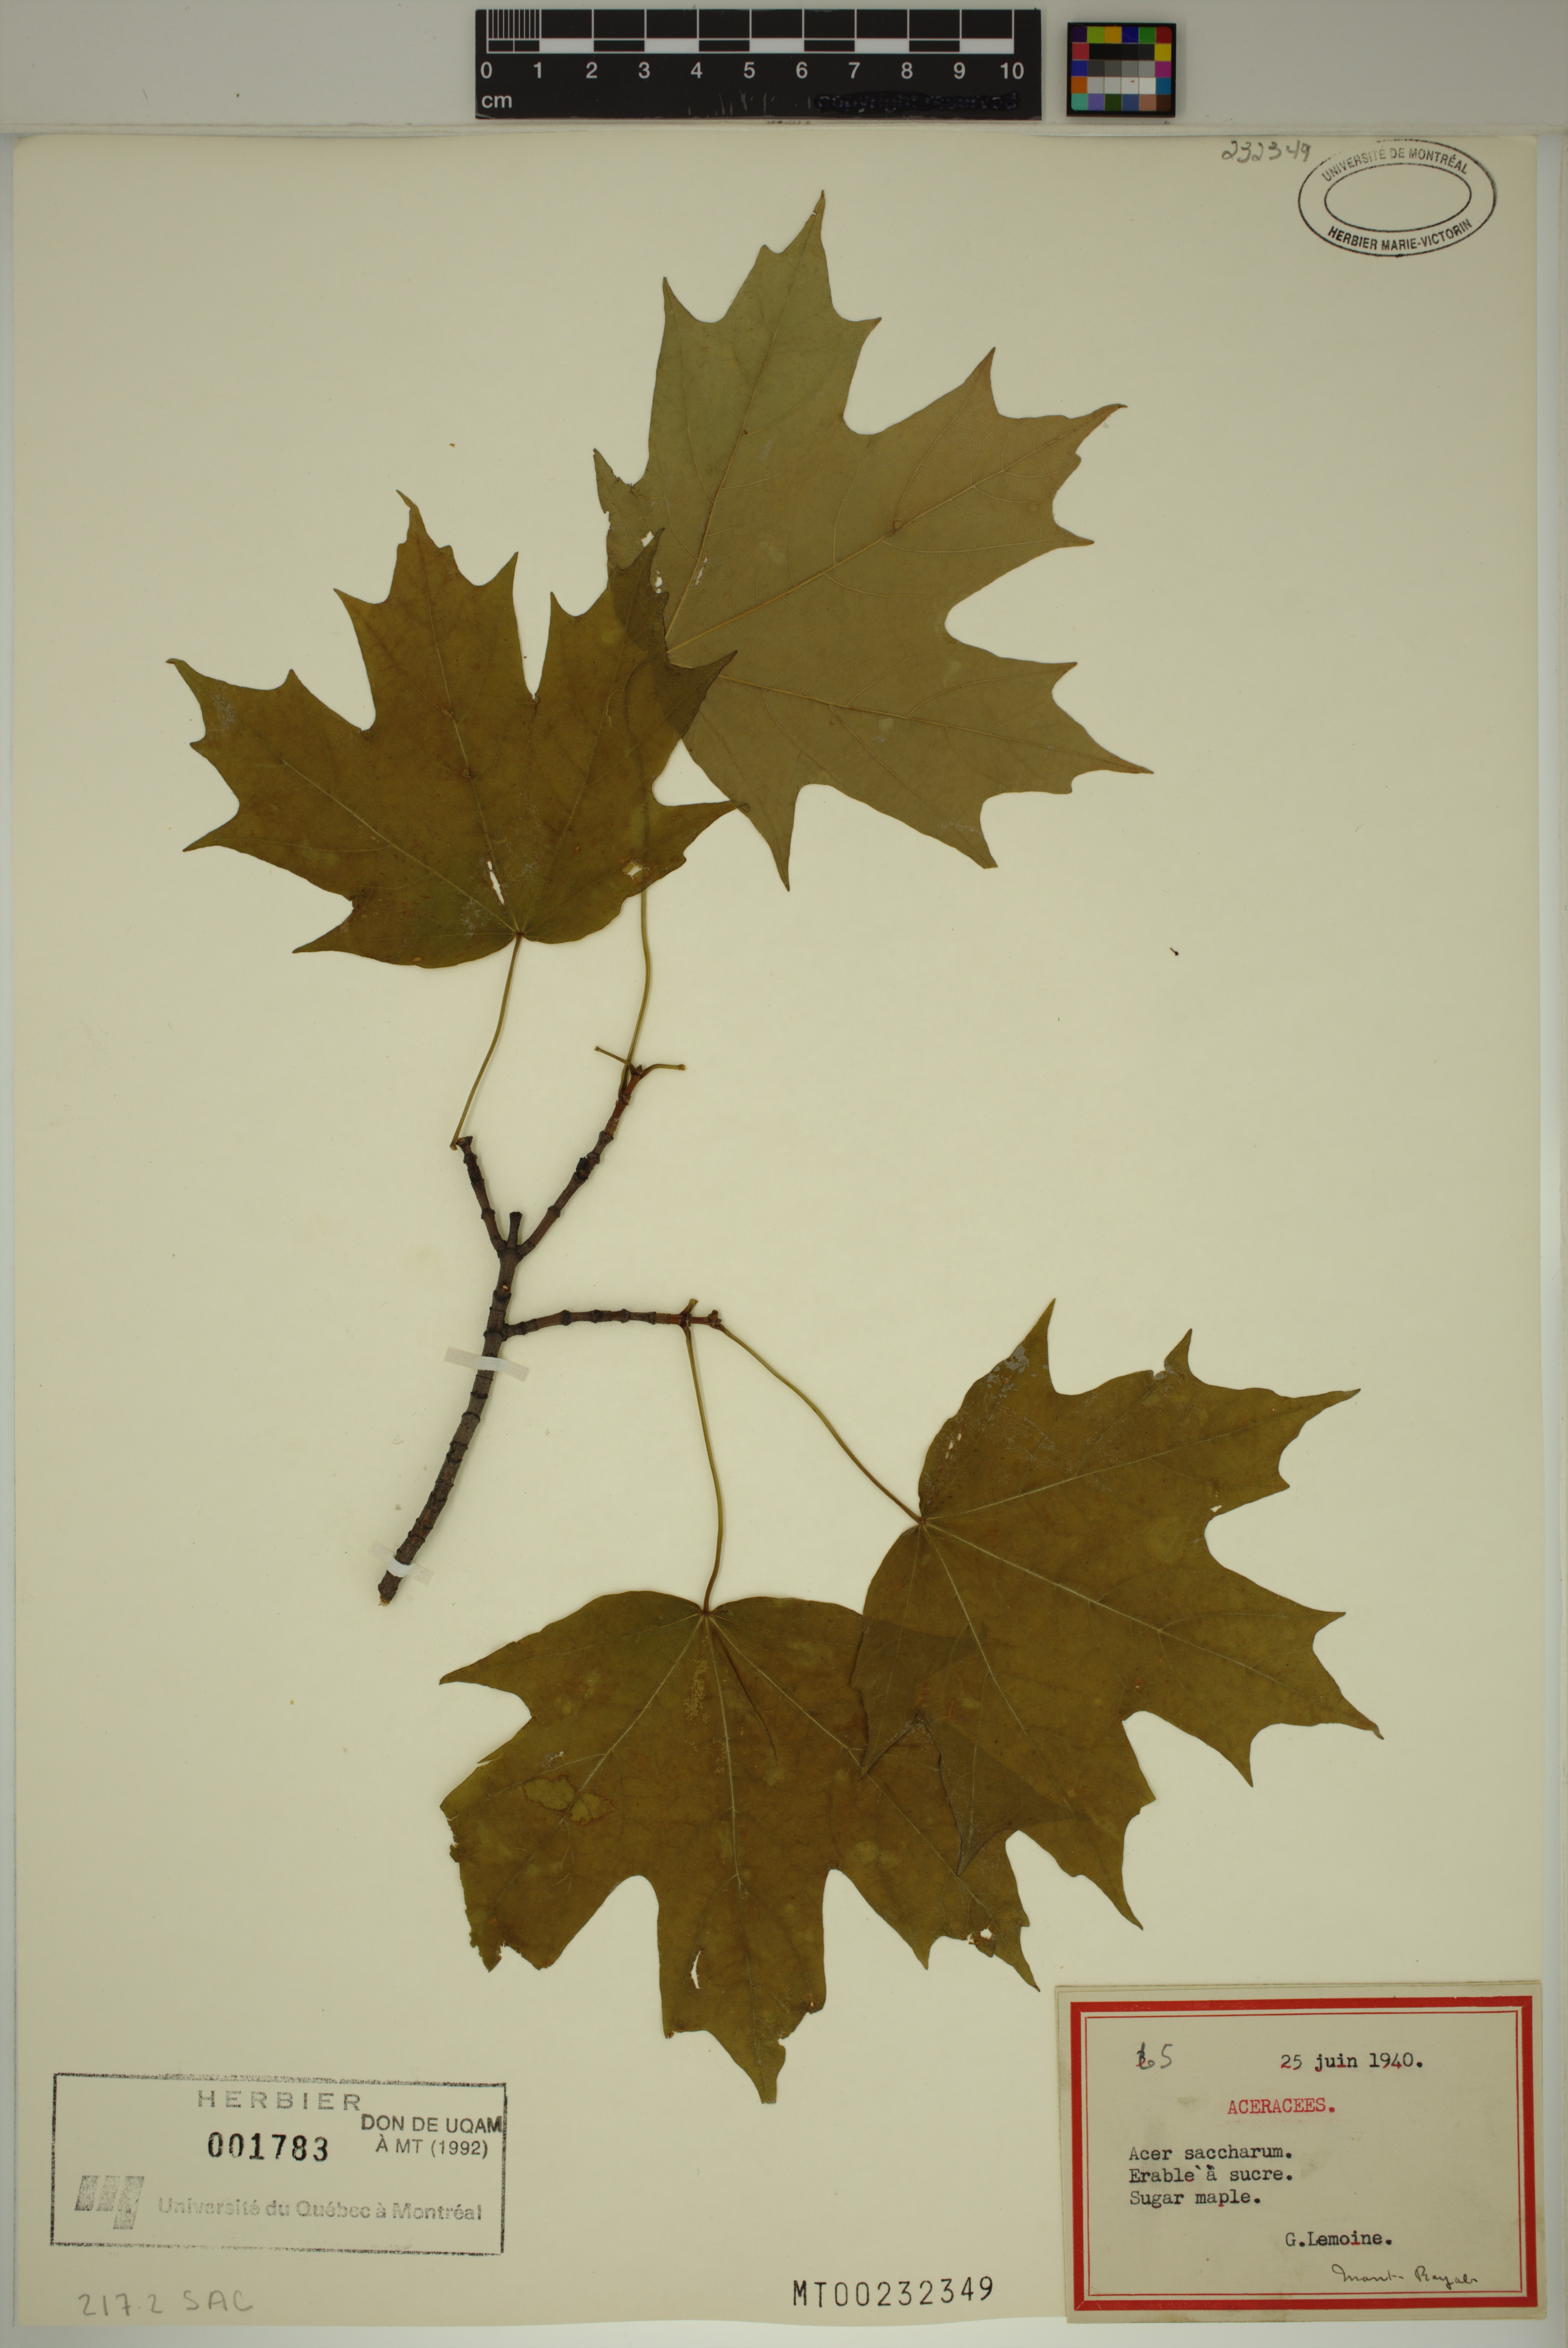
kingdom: Plantae
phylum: Tracheophyta
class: Magnoliopsida
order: Sapindales
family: Sapindaceae
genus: Acer
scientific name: Acer saccharum
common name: Sugar maple
